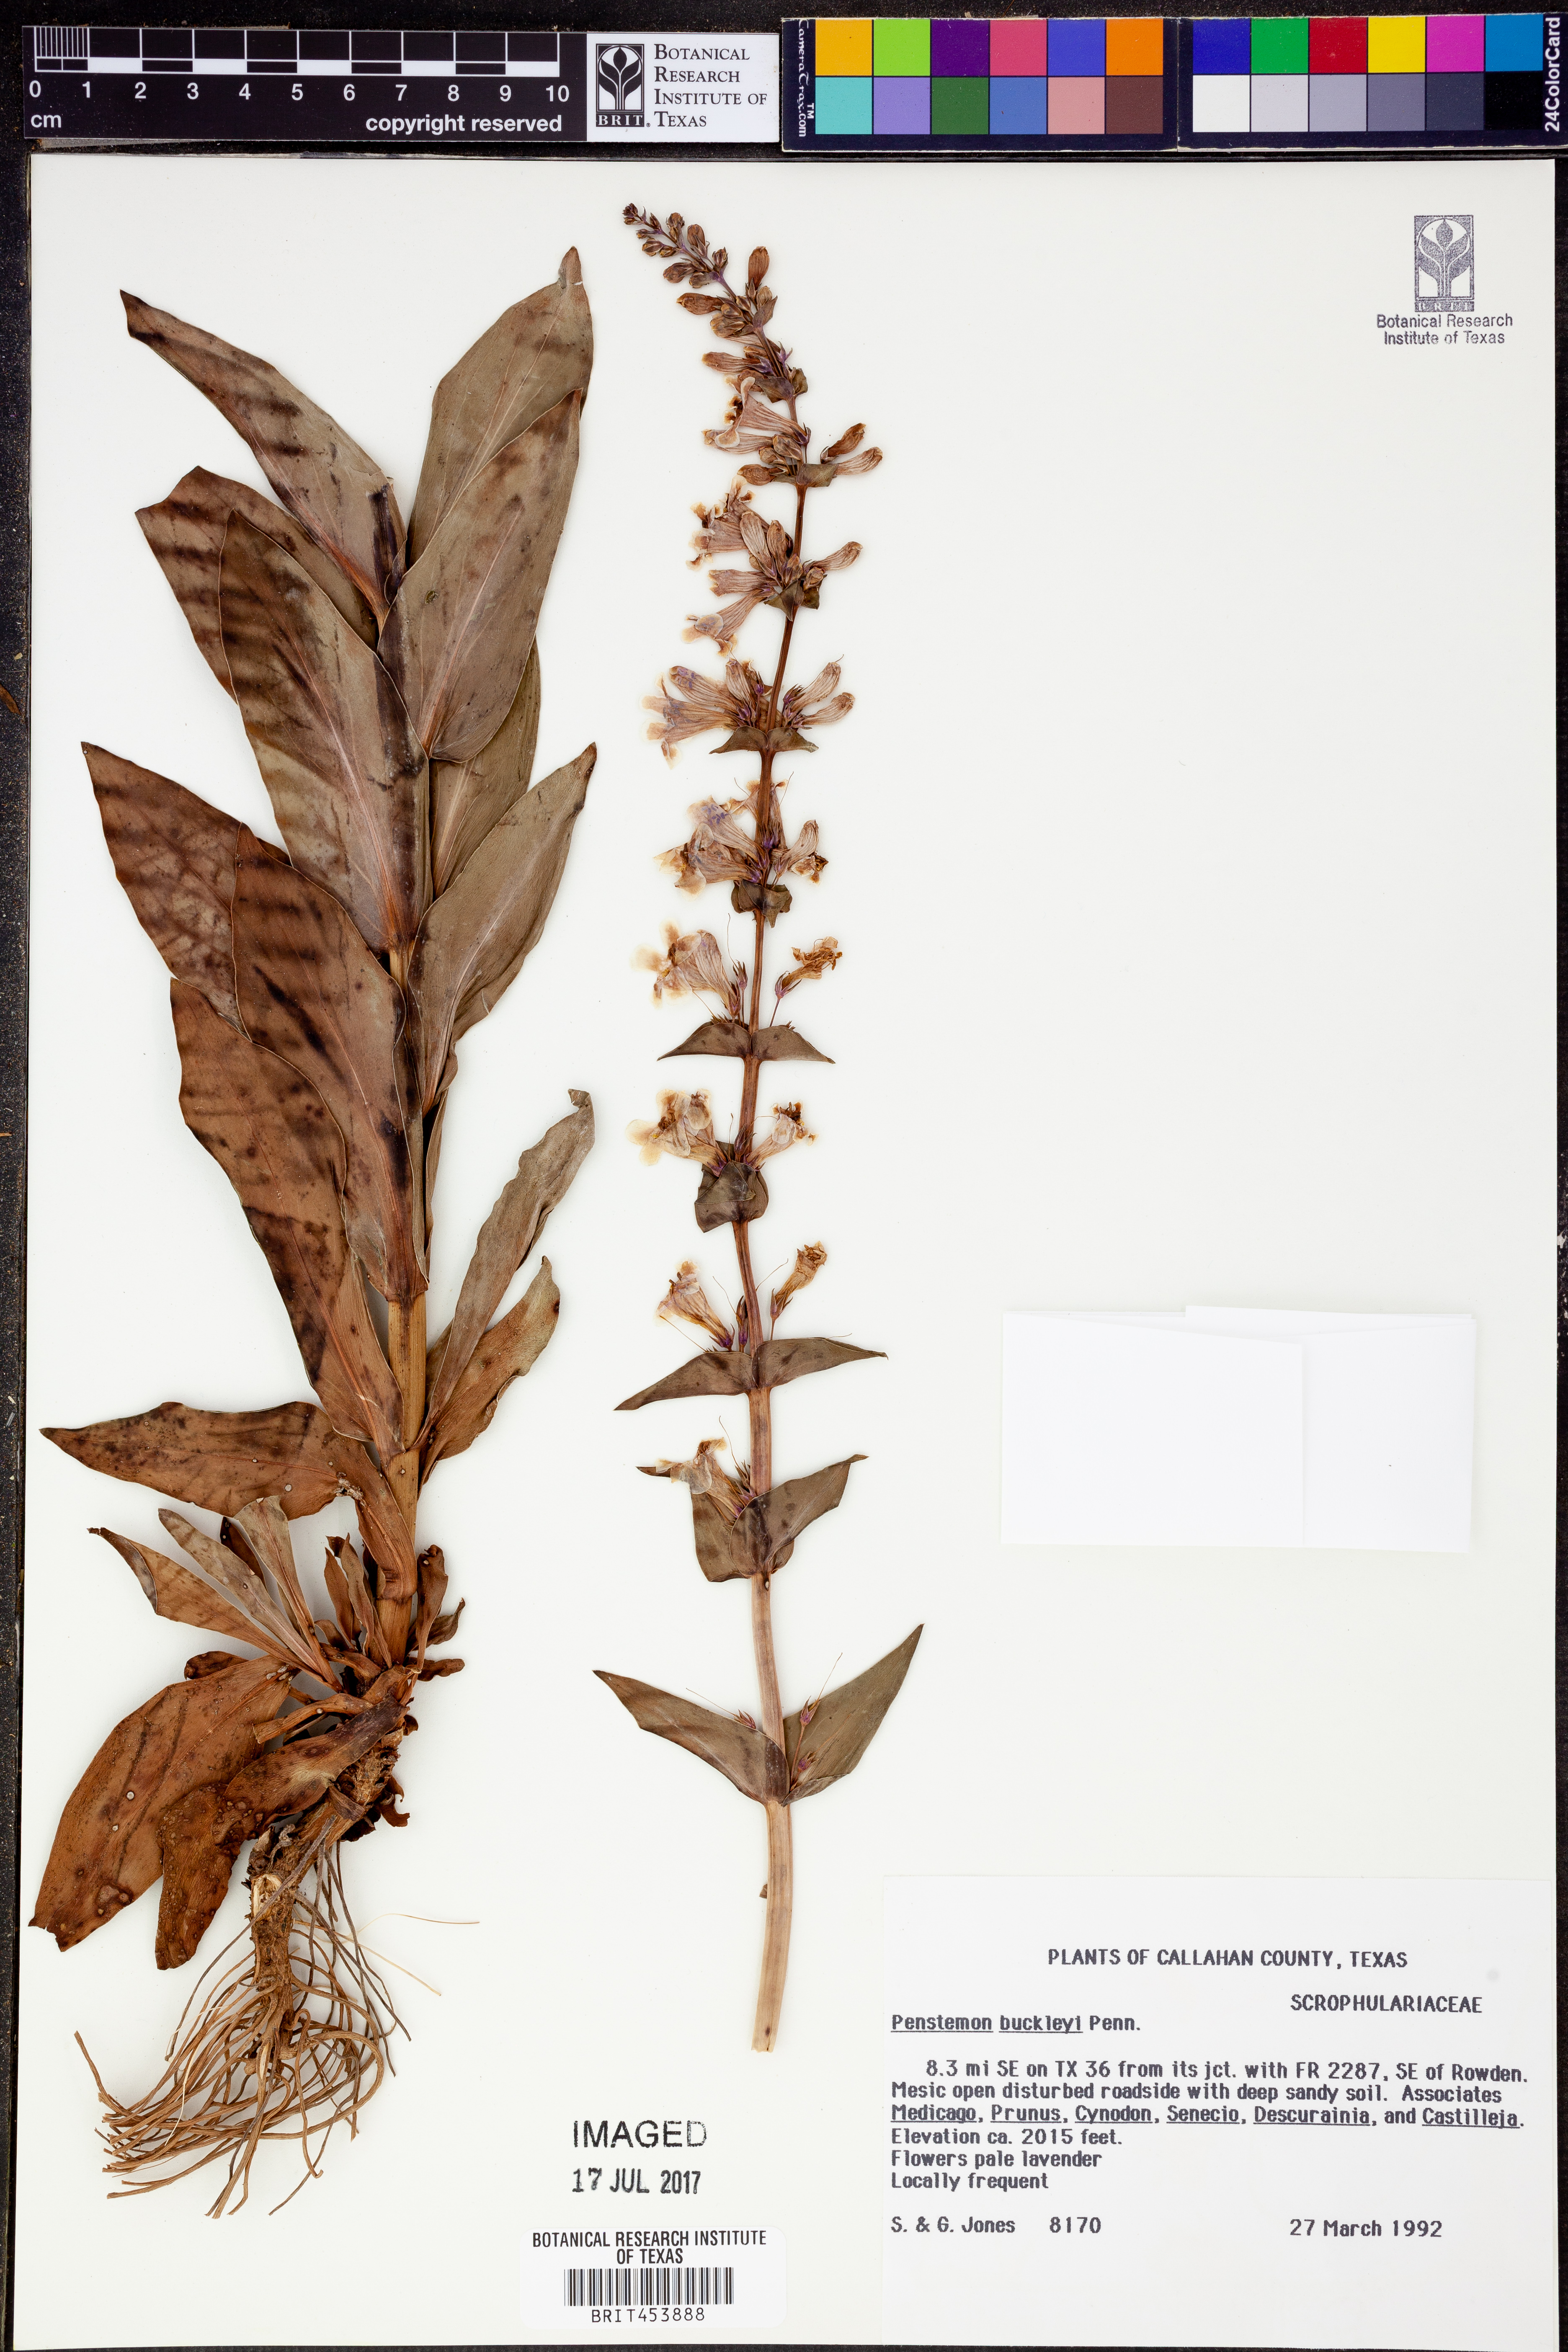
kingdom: Plantae
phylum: Tracheophyta
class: Magnoliopsida
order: Lamiales
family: Plantaginaceae
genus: Penstemon
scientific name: Penstemon buckleyi
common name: Buckley's penstemon
